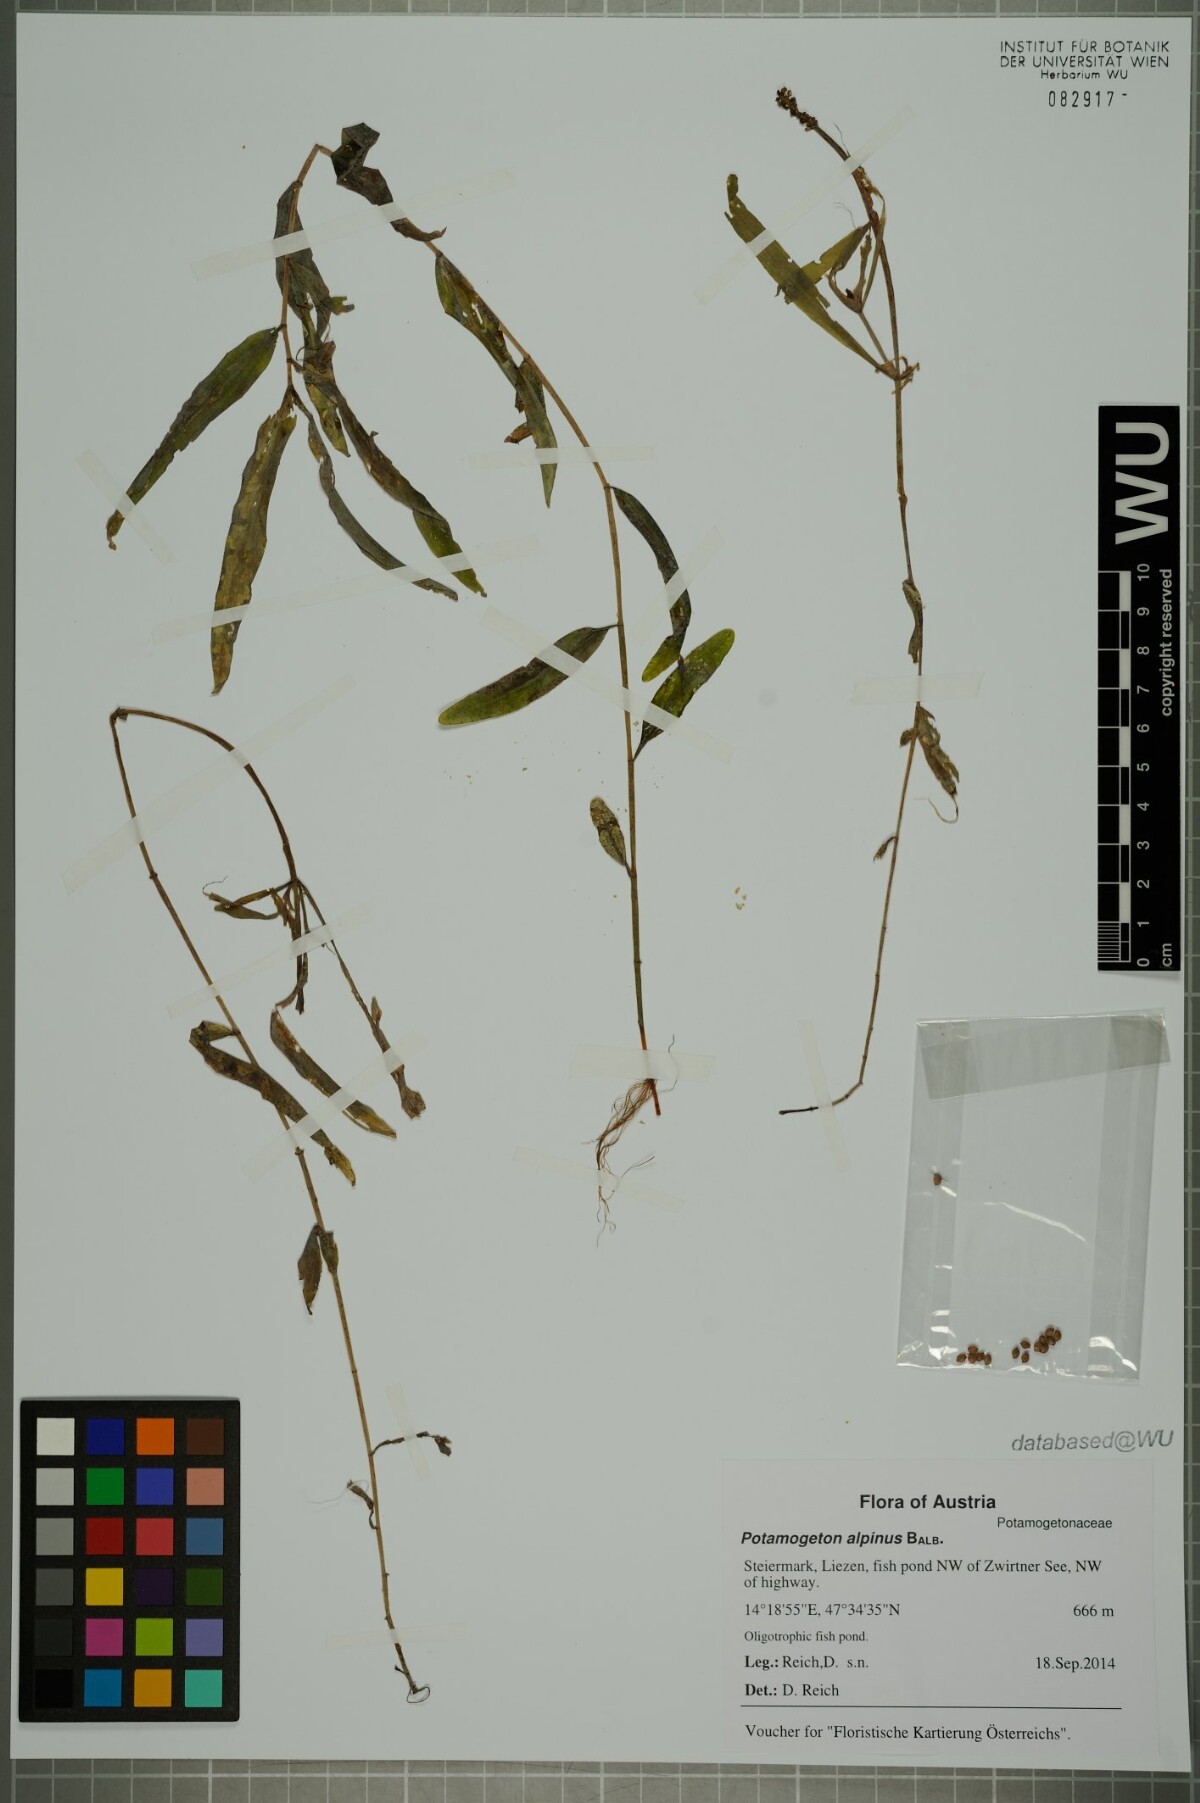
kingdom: Plantae
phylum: Tracheophyta
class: Liliopsida
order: Alismatales
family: Potamogetonaceae
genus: Potamogeton
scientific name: Potamogeton alpinus
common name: Red pondweed
